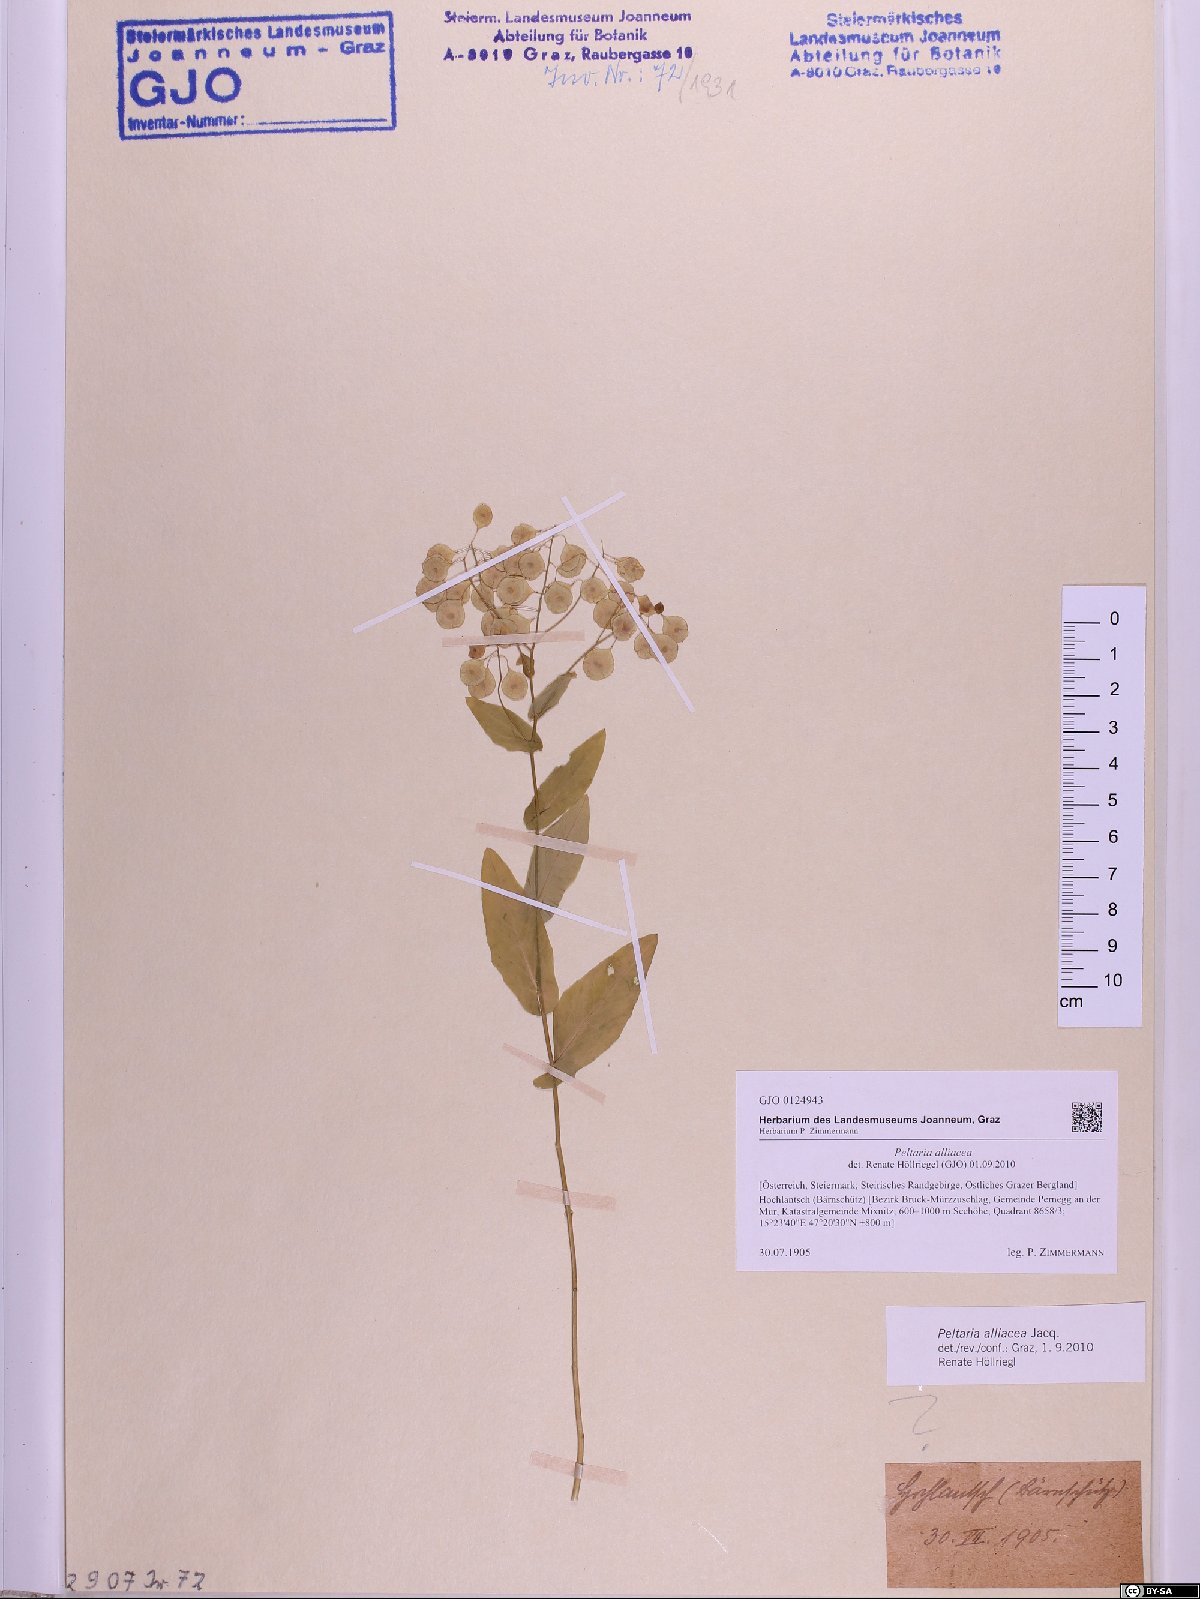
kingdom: Plantae
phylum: Tracheophyta
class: Magnoliopsida
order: Brassicales
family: Brassicaceae
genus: Peltaria
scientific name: Peltaria alliacea
